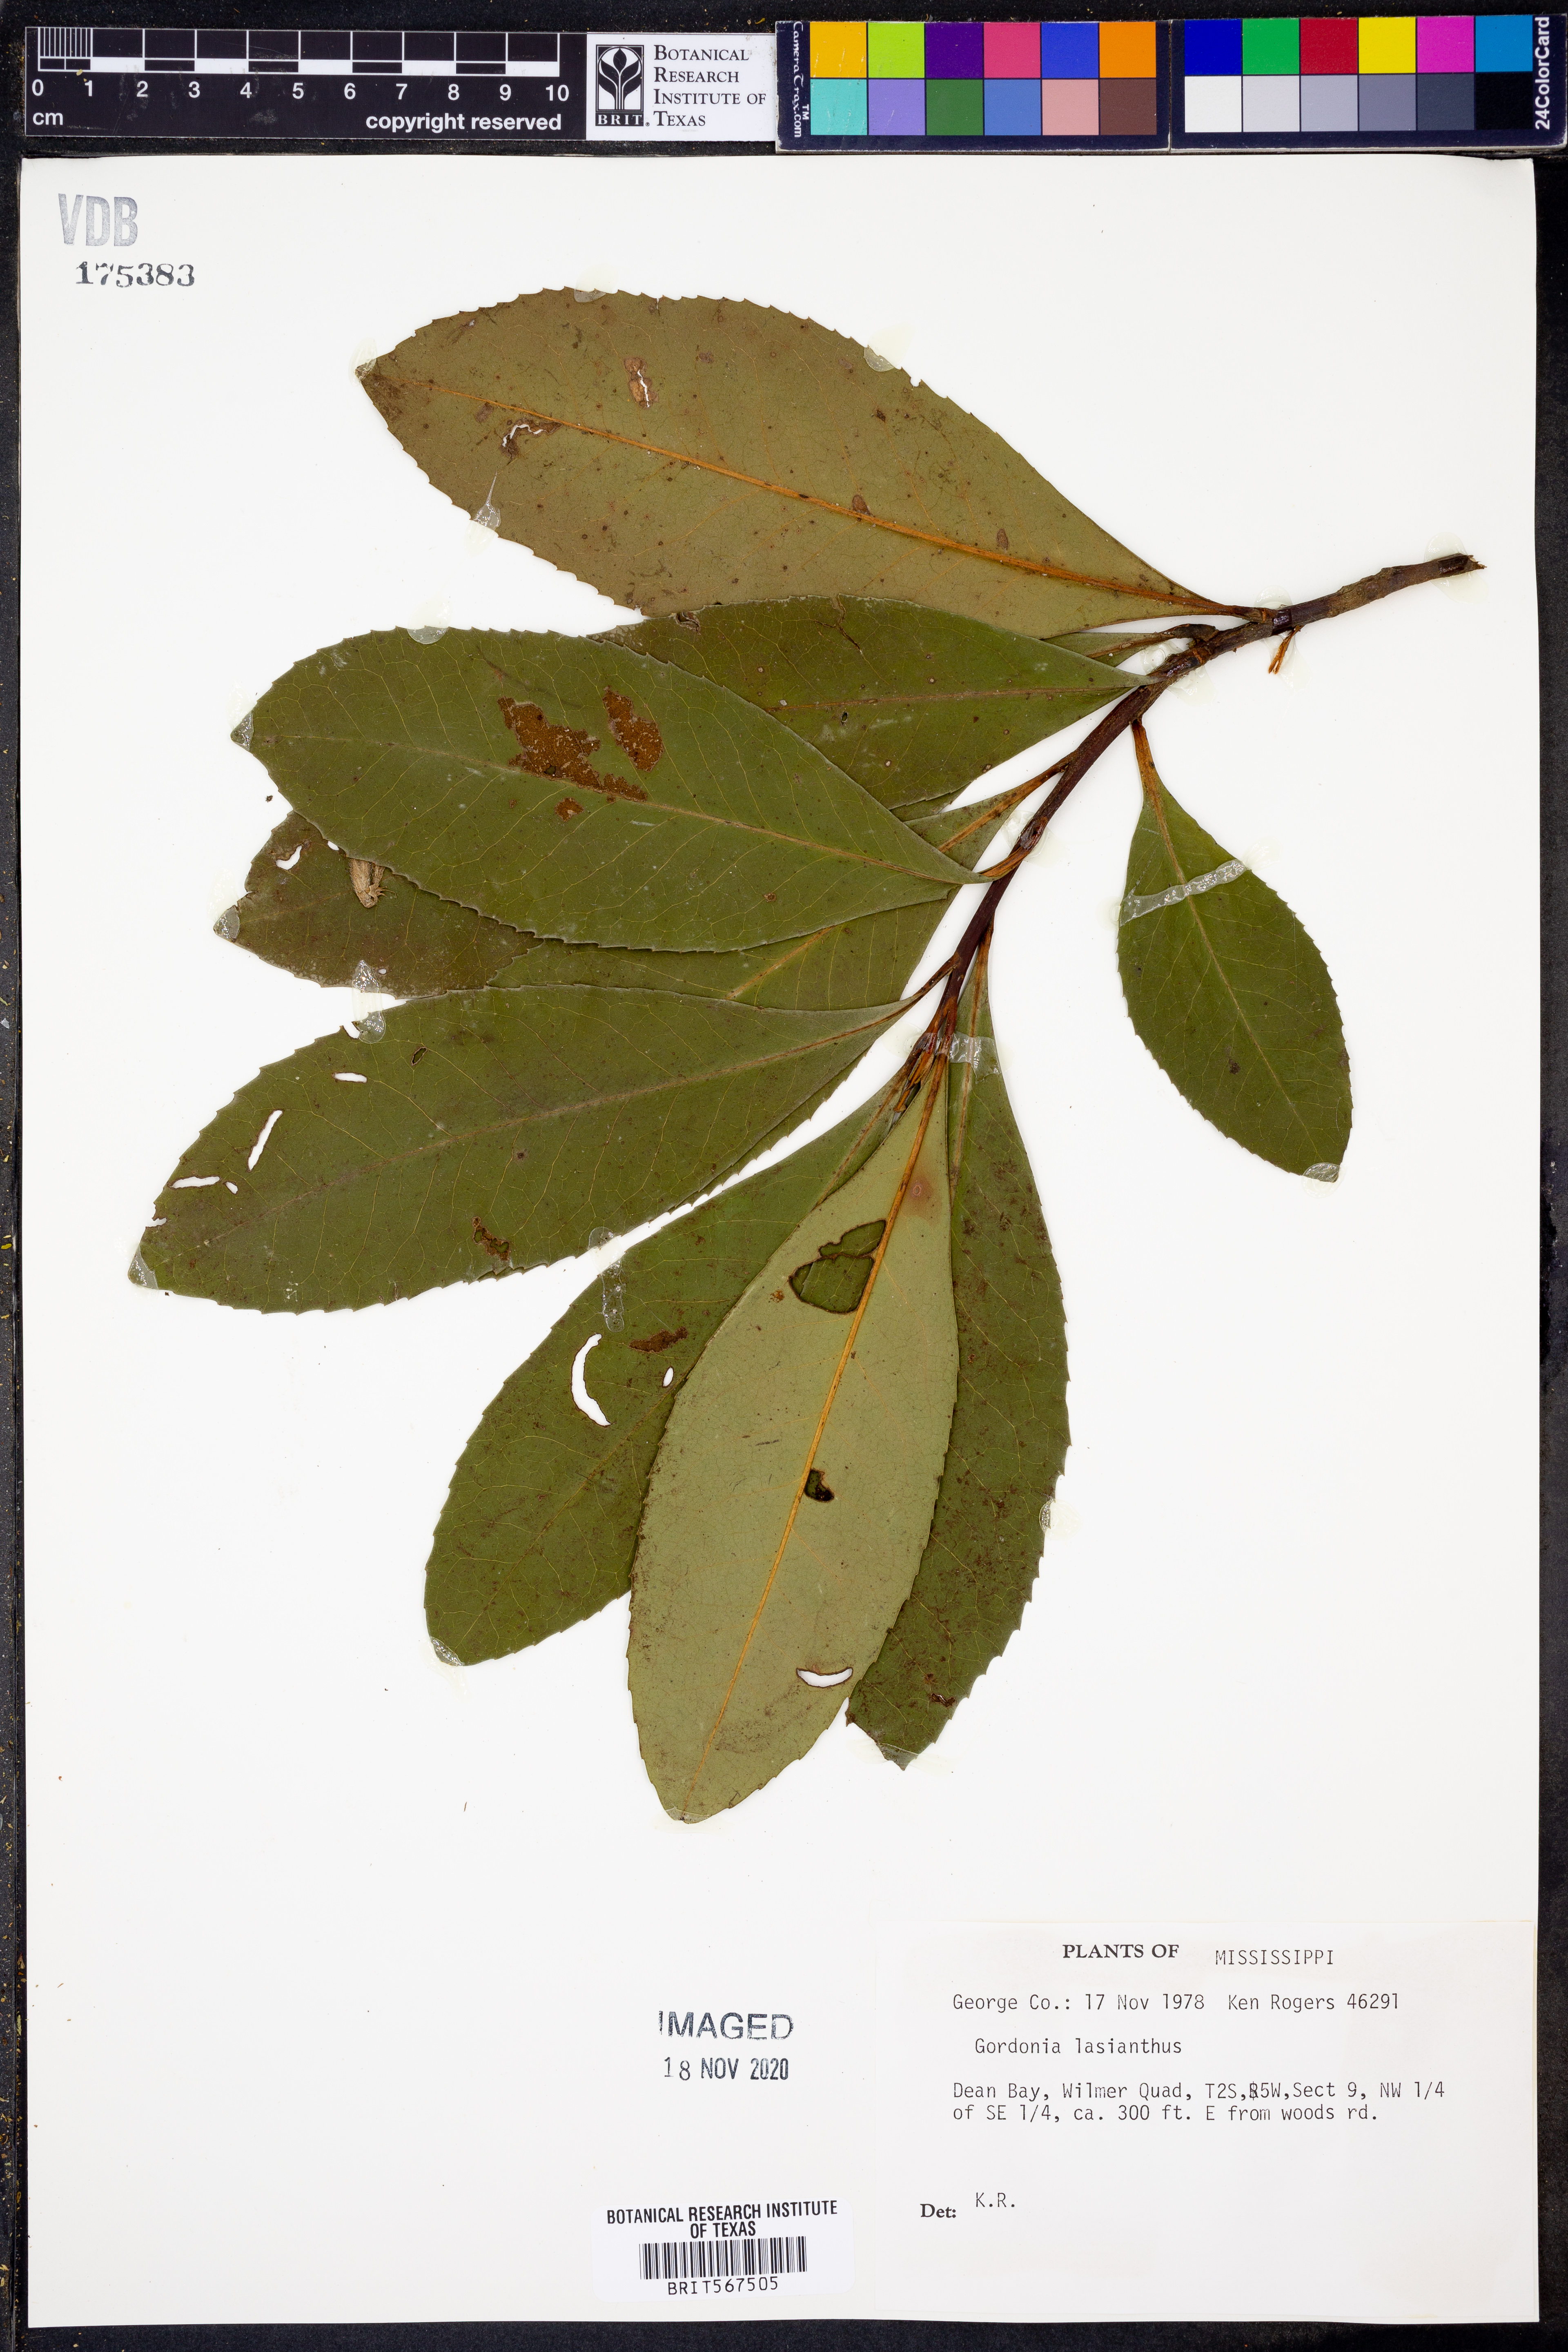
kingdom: Plantae
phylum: Tracheophyta
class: Magnoliopsida
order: Ericales
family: Theaceae
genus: Gordonia
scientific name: Gordonia lasianthus
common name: Loblolly bay
